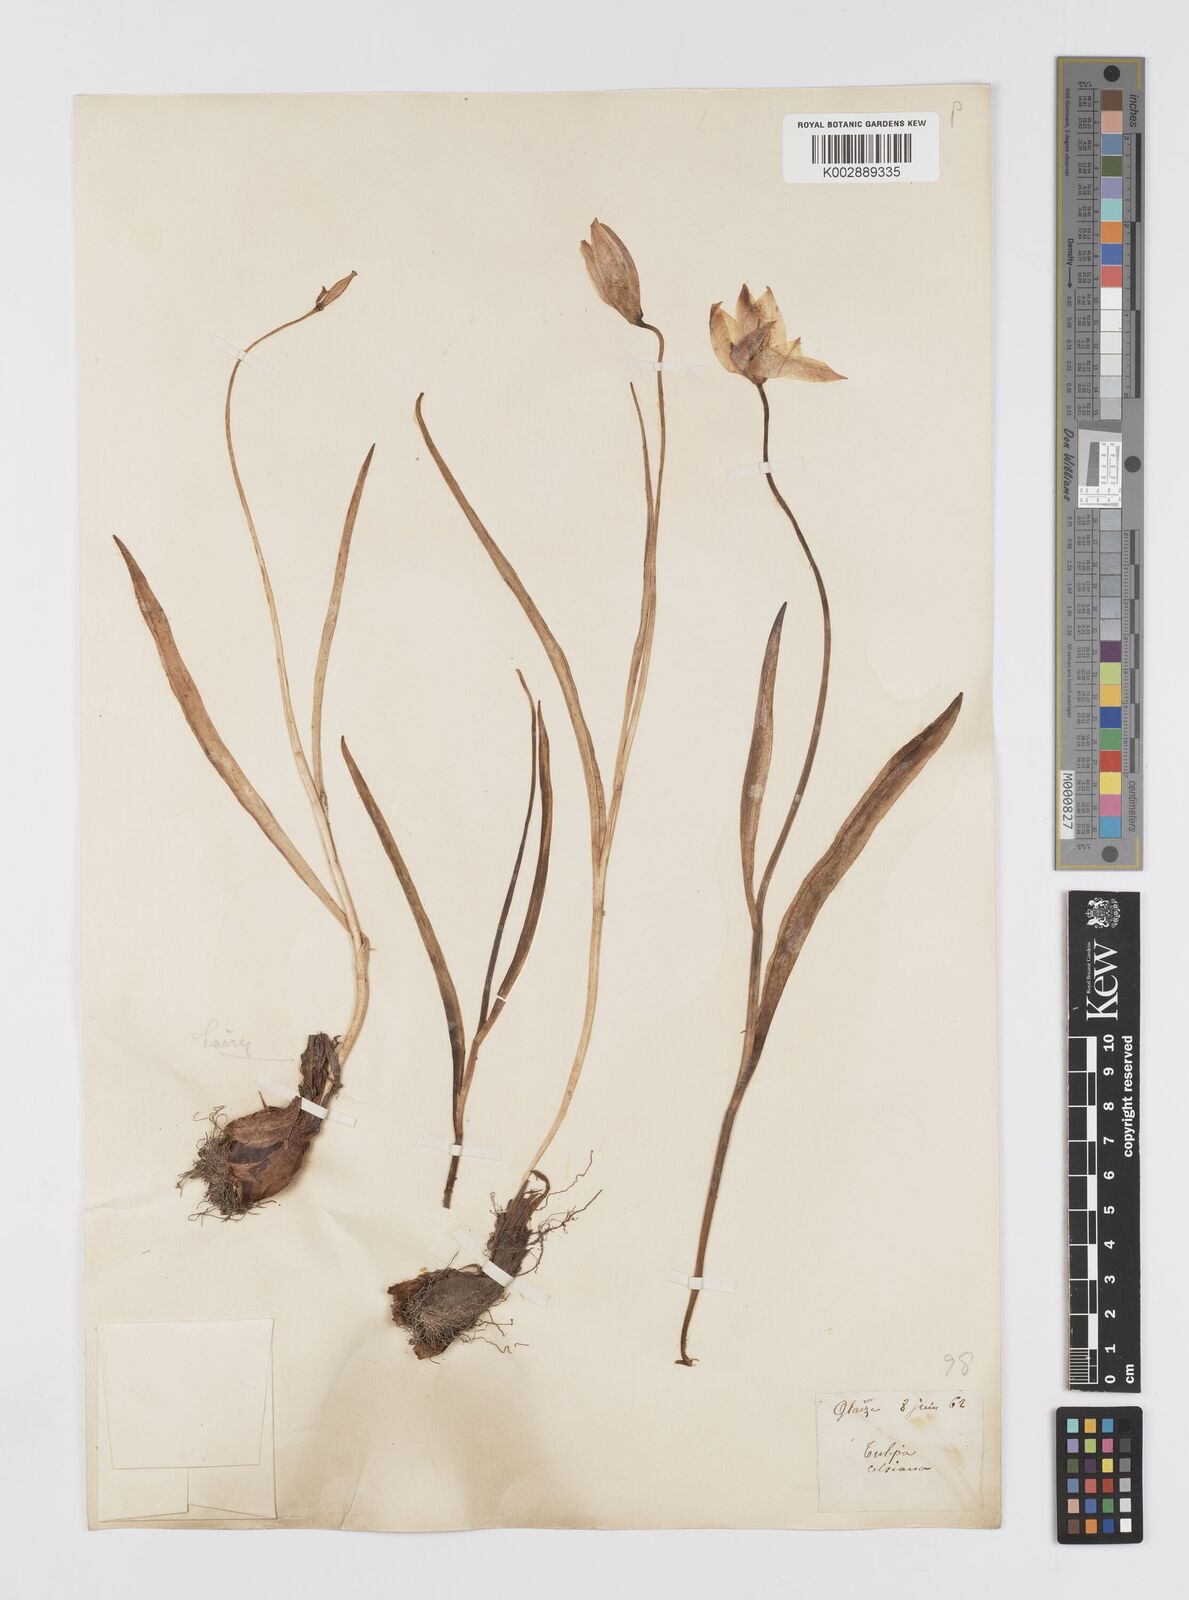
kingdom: Plantae
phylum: Tracheophyta
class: Liliopsida
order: Liliales
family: Liliaceae
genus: Tulipa
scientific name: Tulipa sylvestris
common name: Wild tulip
